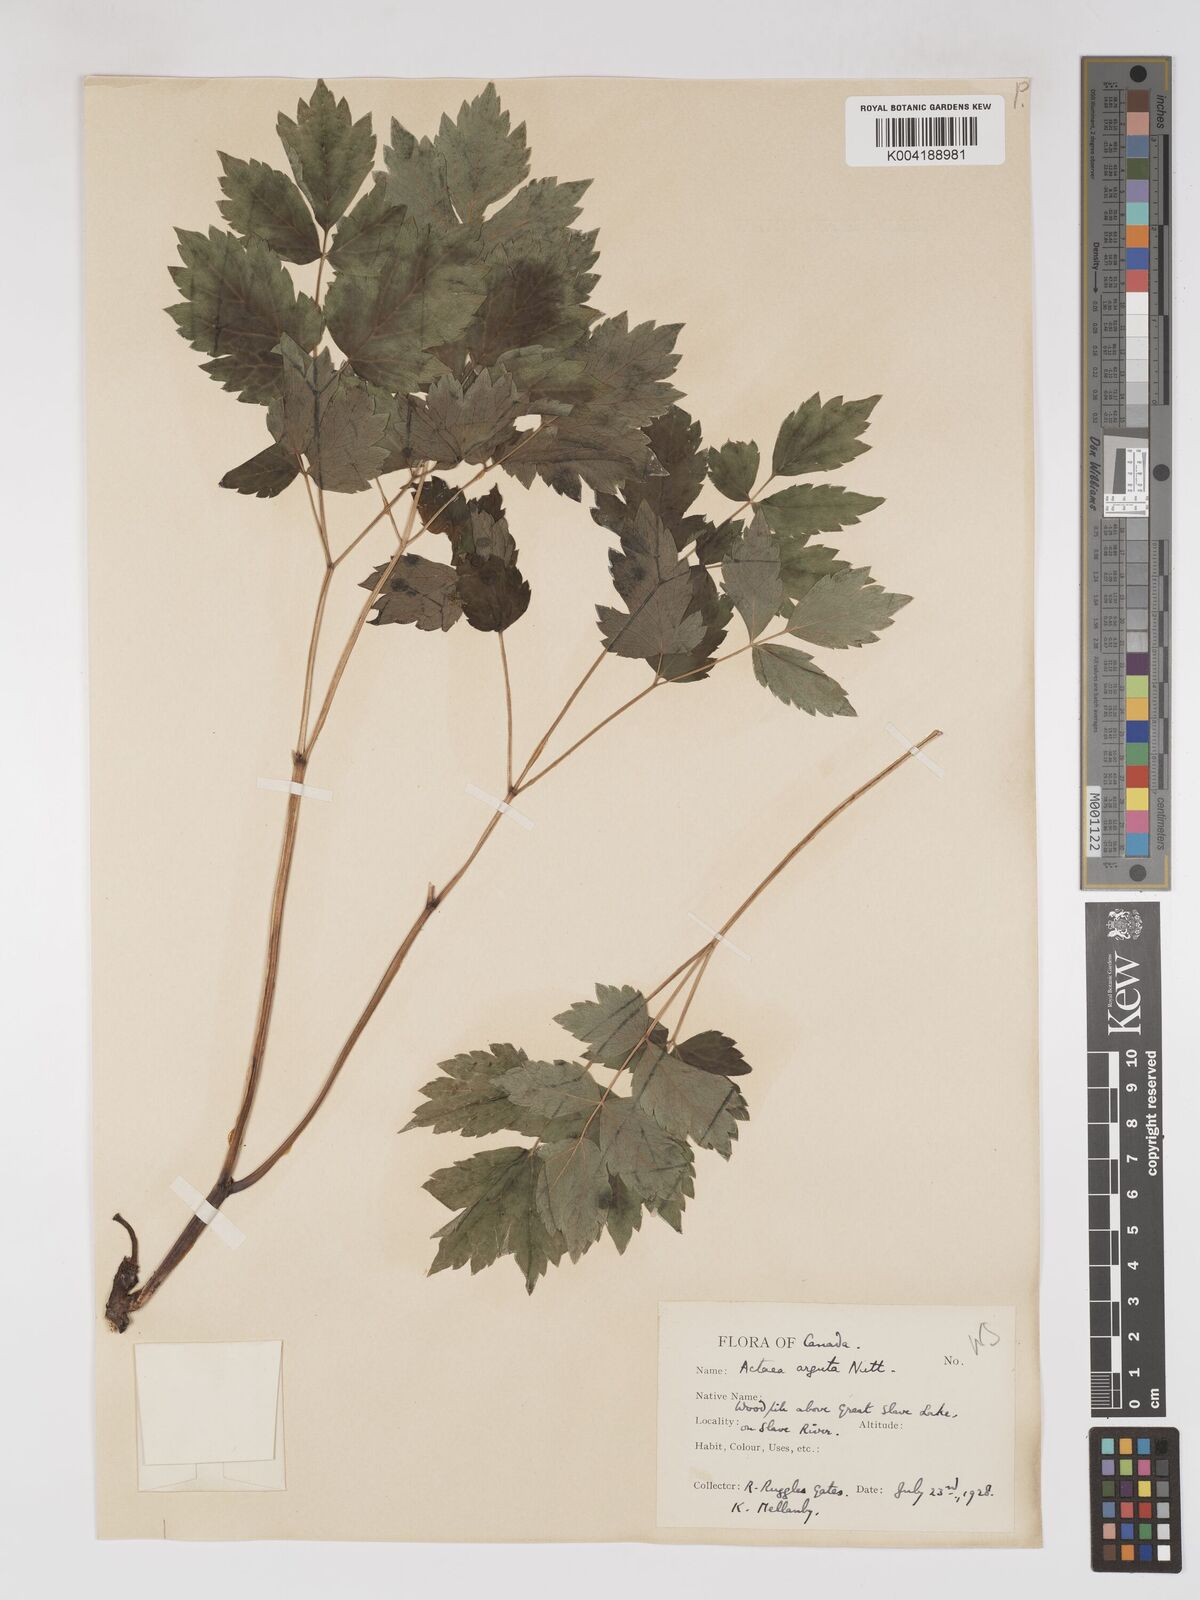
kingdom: Plantae
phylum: Tracheophyta
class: Magnoliopsida
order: Ranunculales
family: Ranunculaceae
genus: Actaea
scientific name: Actaea rubra
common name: Red baneberry
